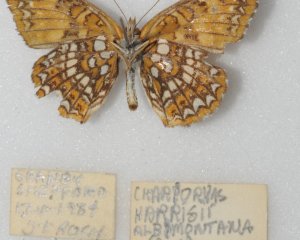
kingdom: Animalia
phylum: Arthropoda
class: Insecta
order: Lepidoptera
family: Nymphalidae
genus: Chlosyne
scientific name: Chlosyne harrisii
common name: Harris's Checkerspot
